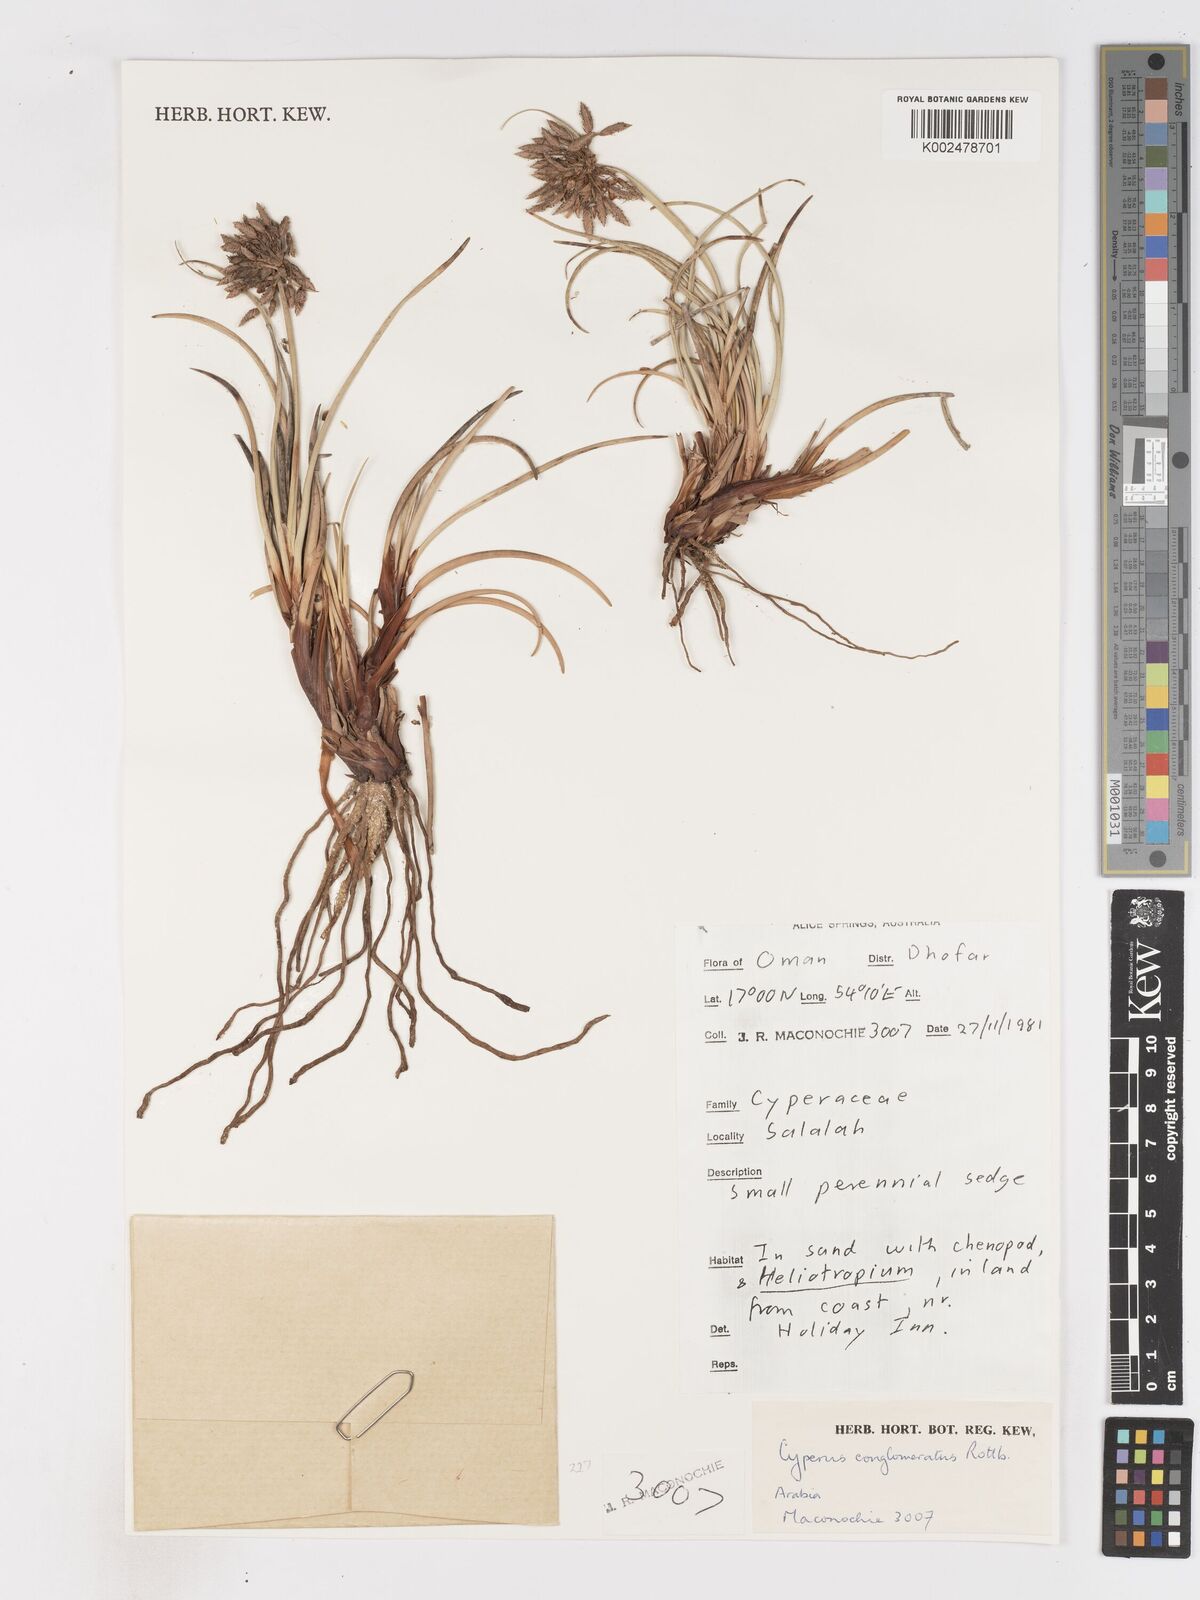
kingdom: Plantae
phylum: Tracheophyta
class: Liliopsida
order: Poales
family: Cyperaceae
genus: Cyperus
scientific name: Cyperus conglomeratus
